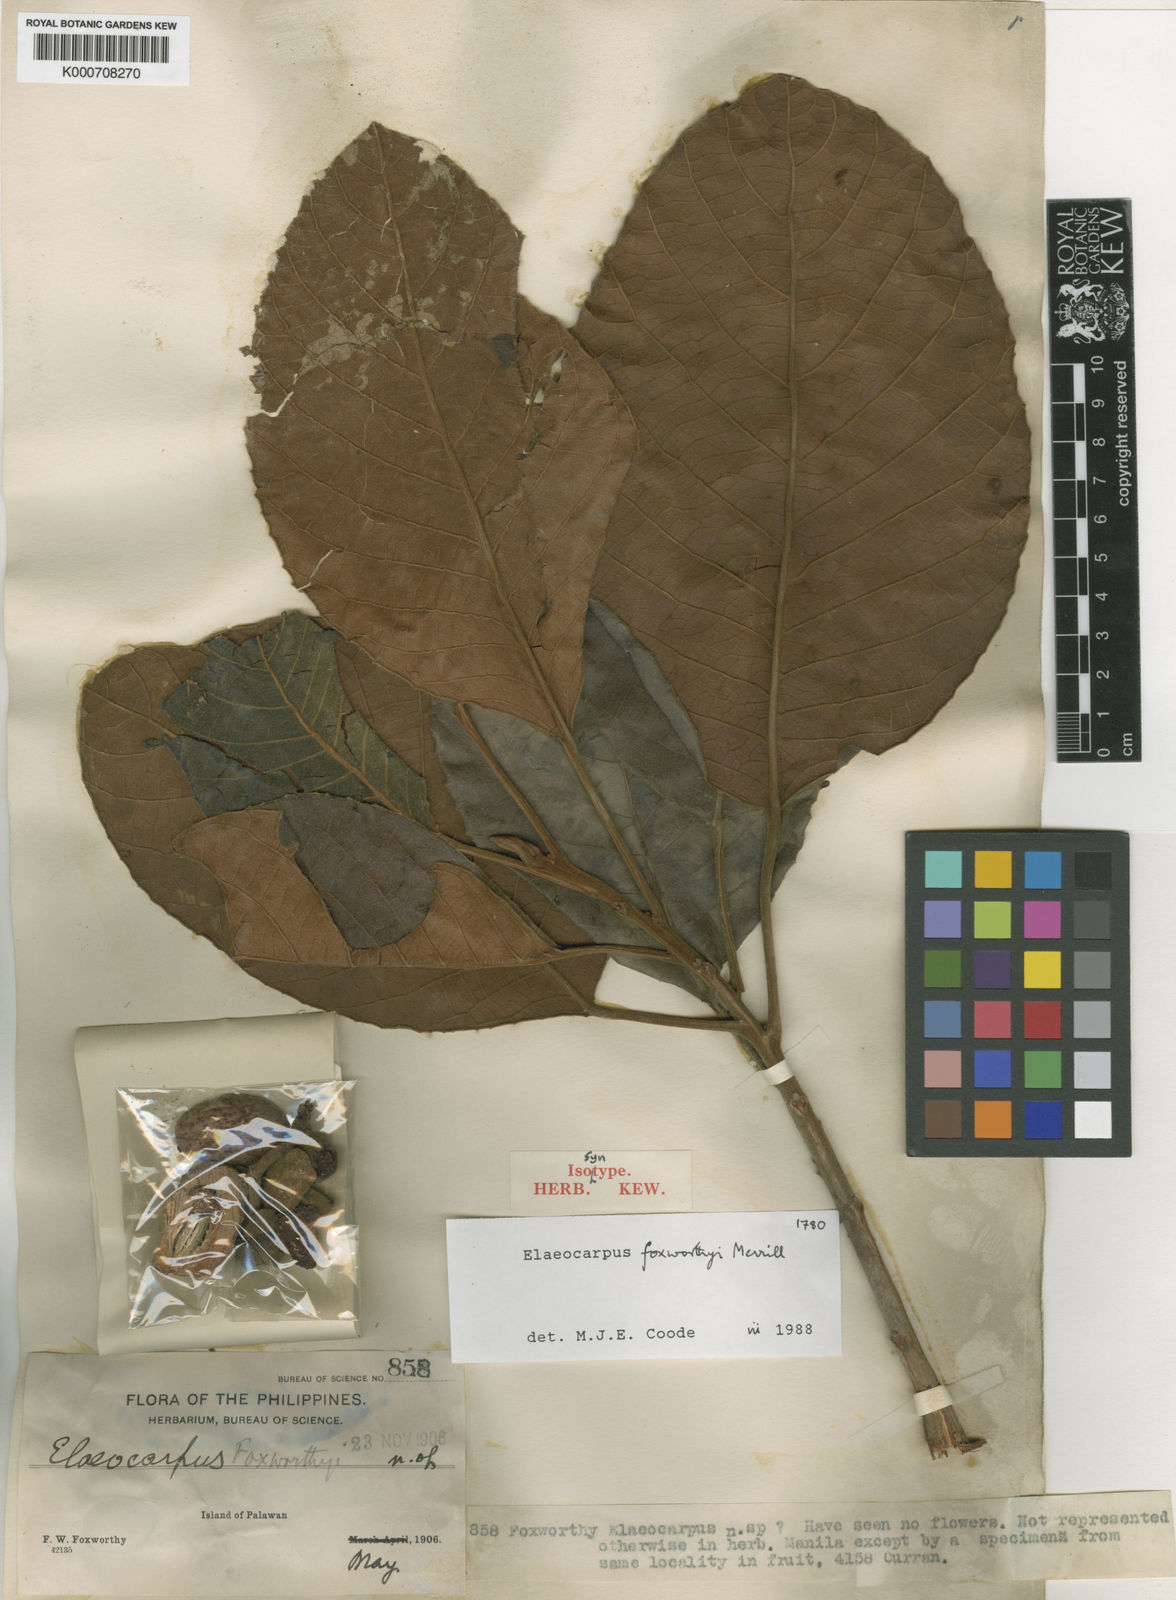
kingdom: Plantae
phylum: Tracheophyta
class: Magnoliopsida
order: Oxalidales
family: Elaeocarpaceae
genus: Elaeocarpus
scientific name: Elaeocarpus foxworthyi
